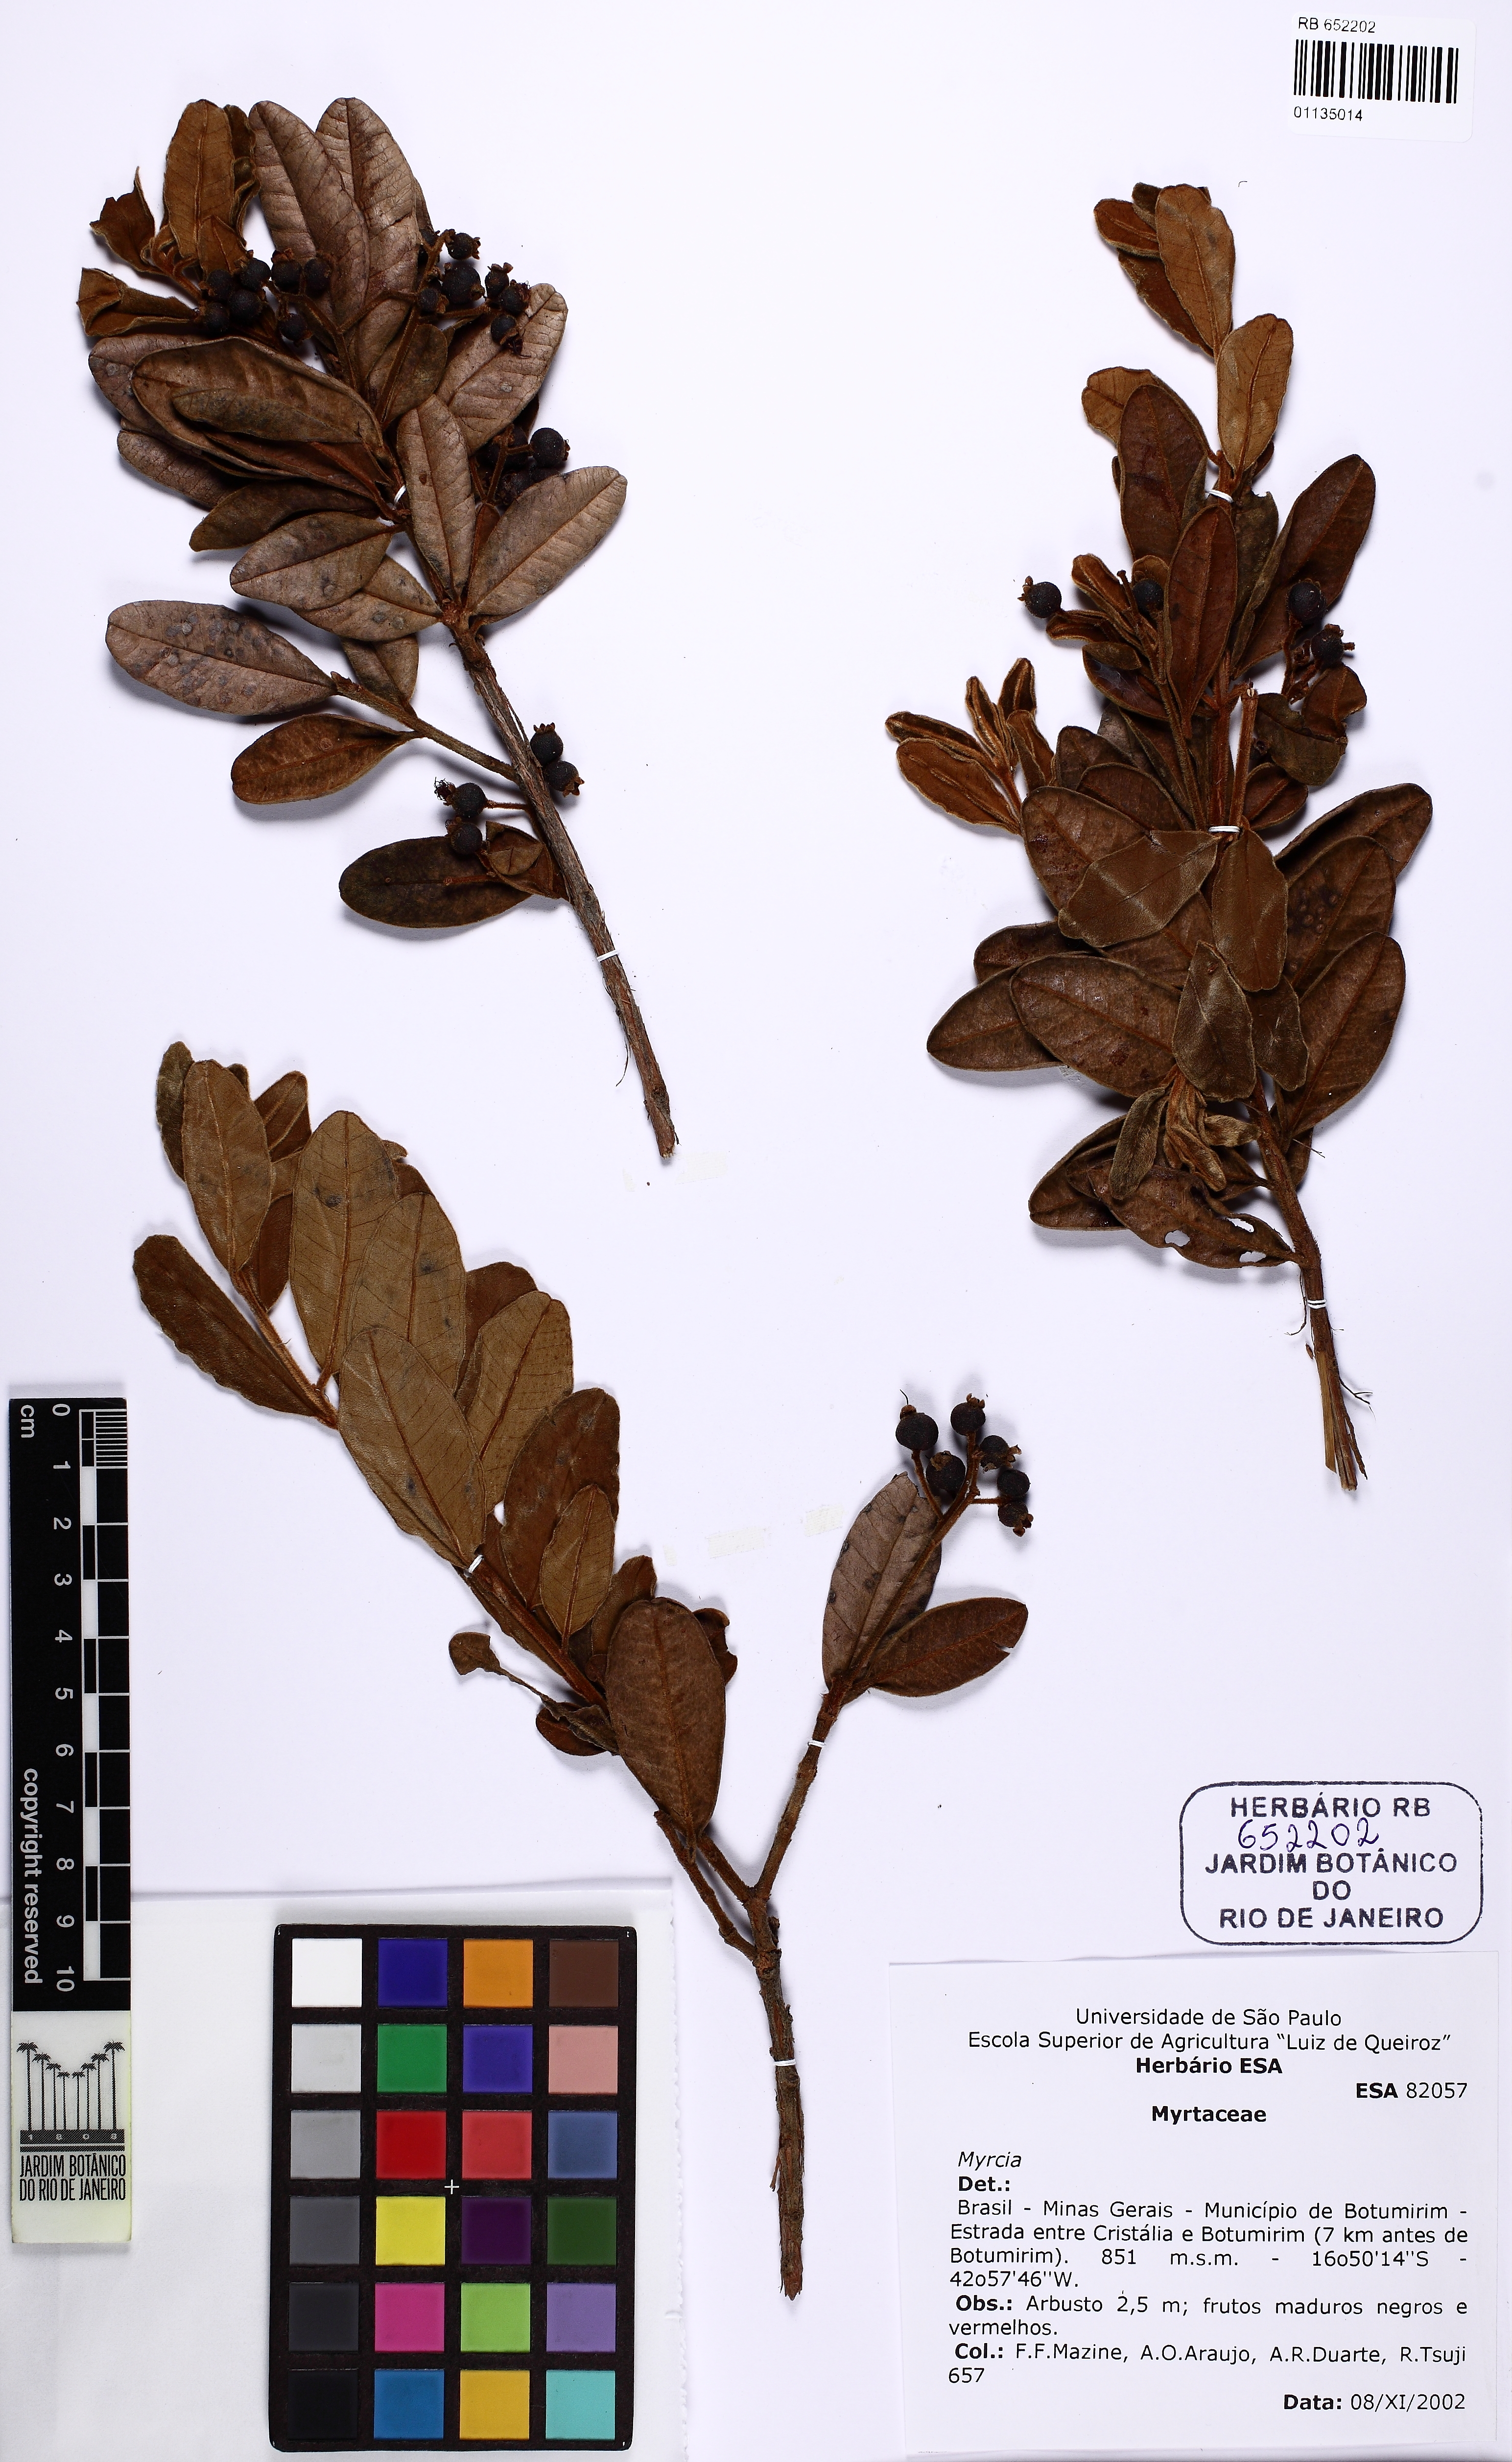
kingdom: Plantae
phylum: Tracheophyta
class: Magnoliopsida
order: Myrtales
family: Myrtaceae
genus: Myrcia
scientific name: Myrcia rufipes
